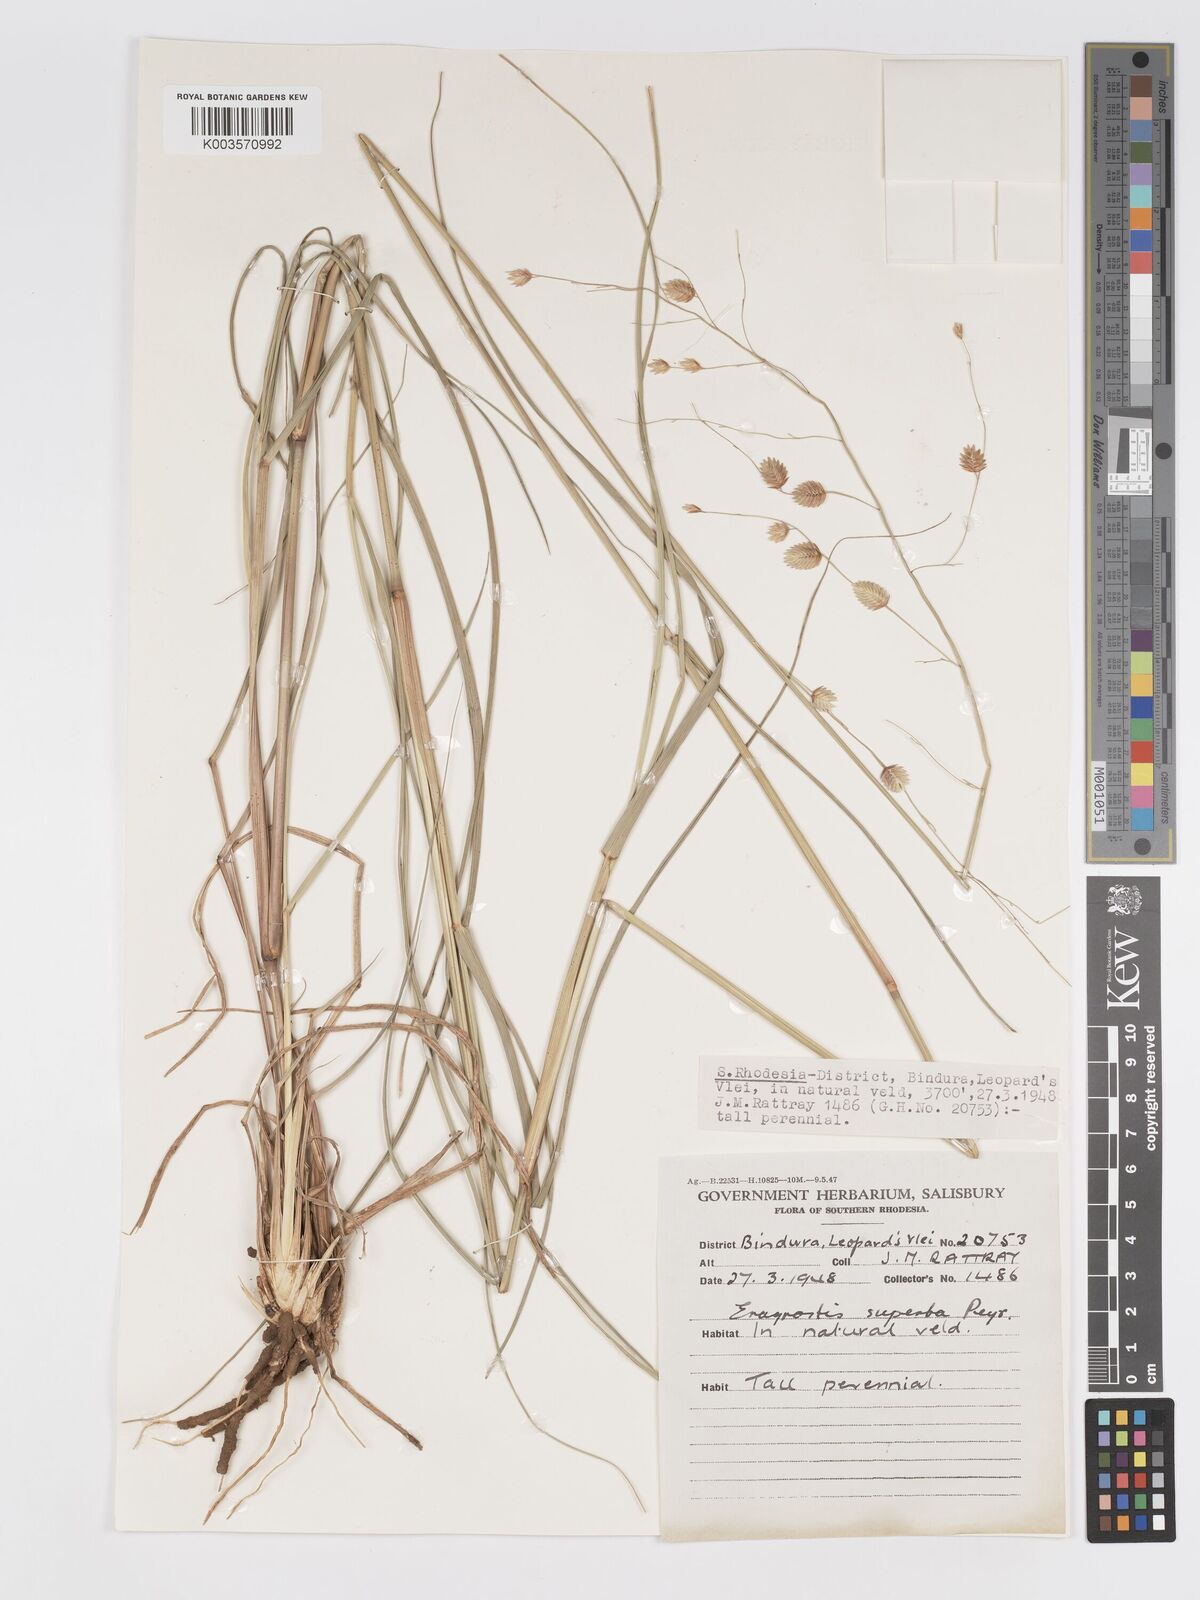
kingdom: Plantae
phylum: Tracheophyta
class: Liliopsida
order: Poales
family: Poaceae
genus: Eragrostis
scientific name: Eragrostis superba
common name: Wilman lovegrass
